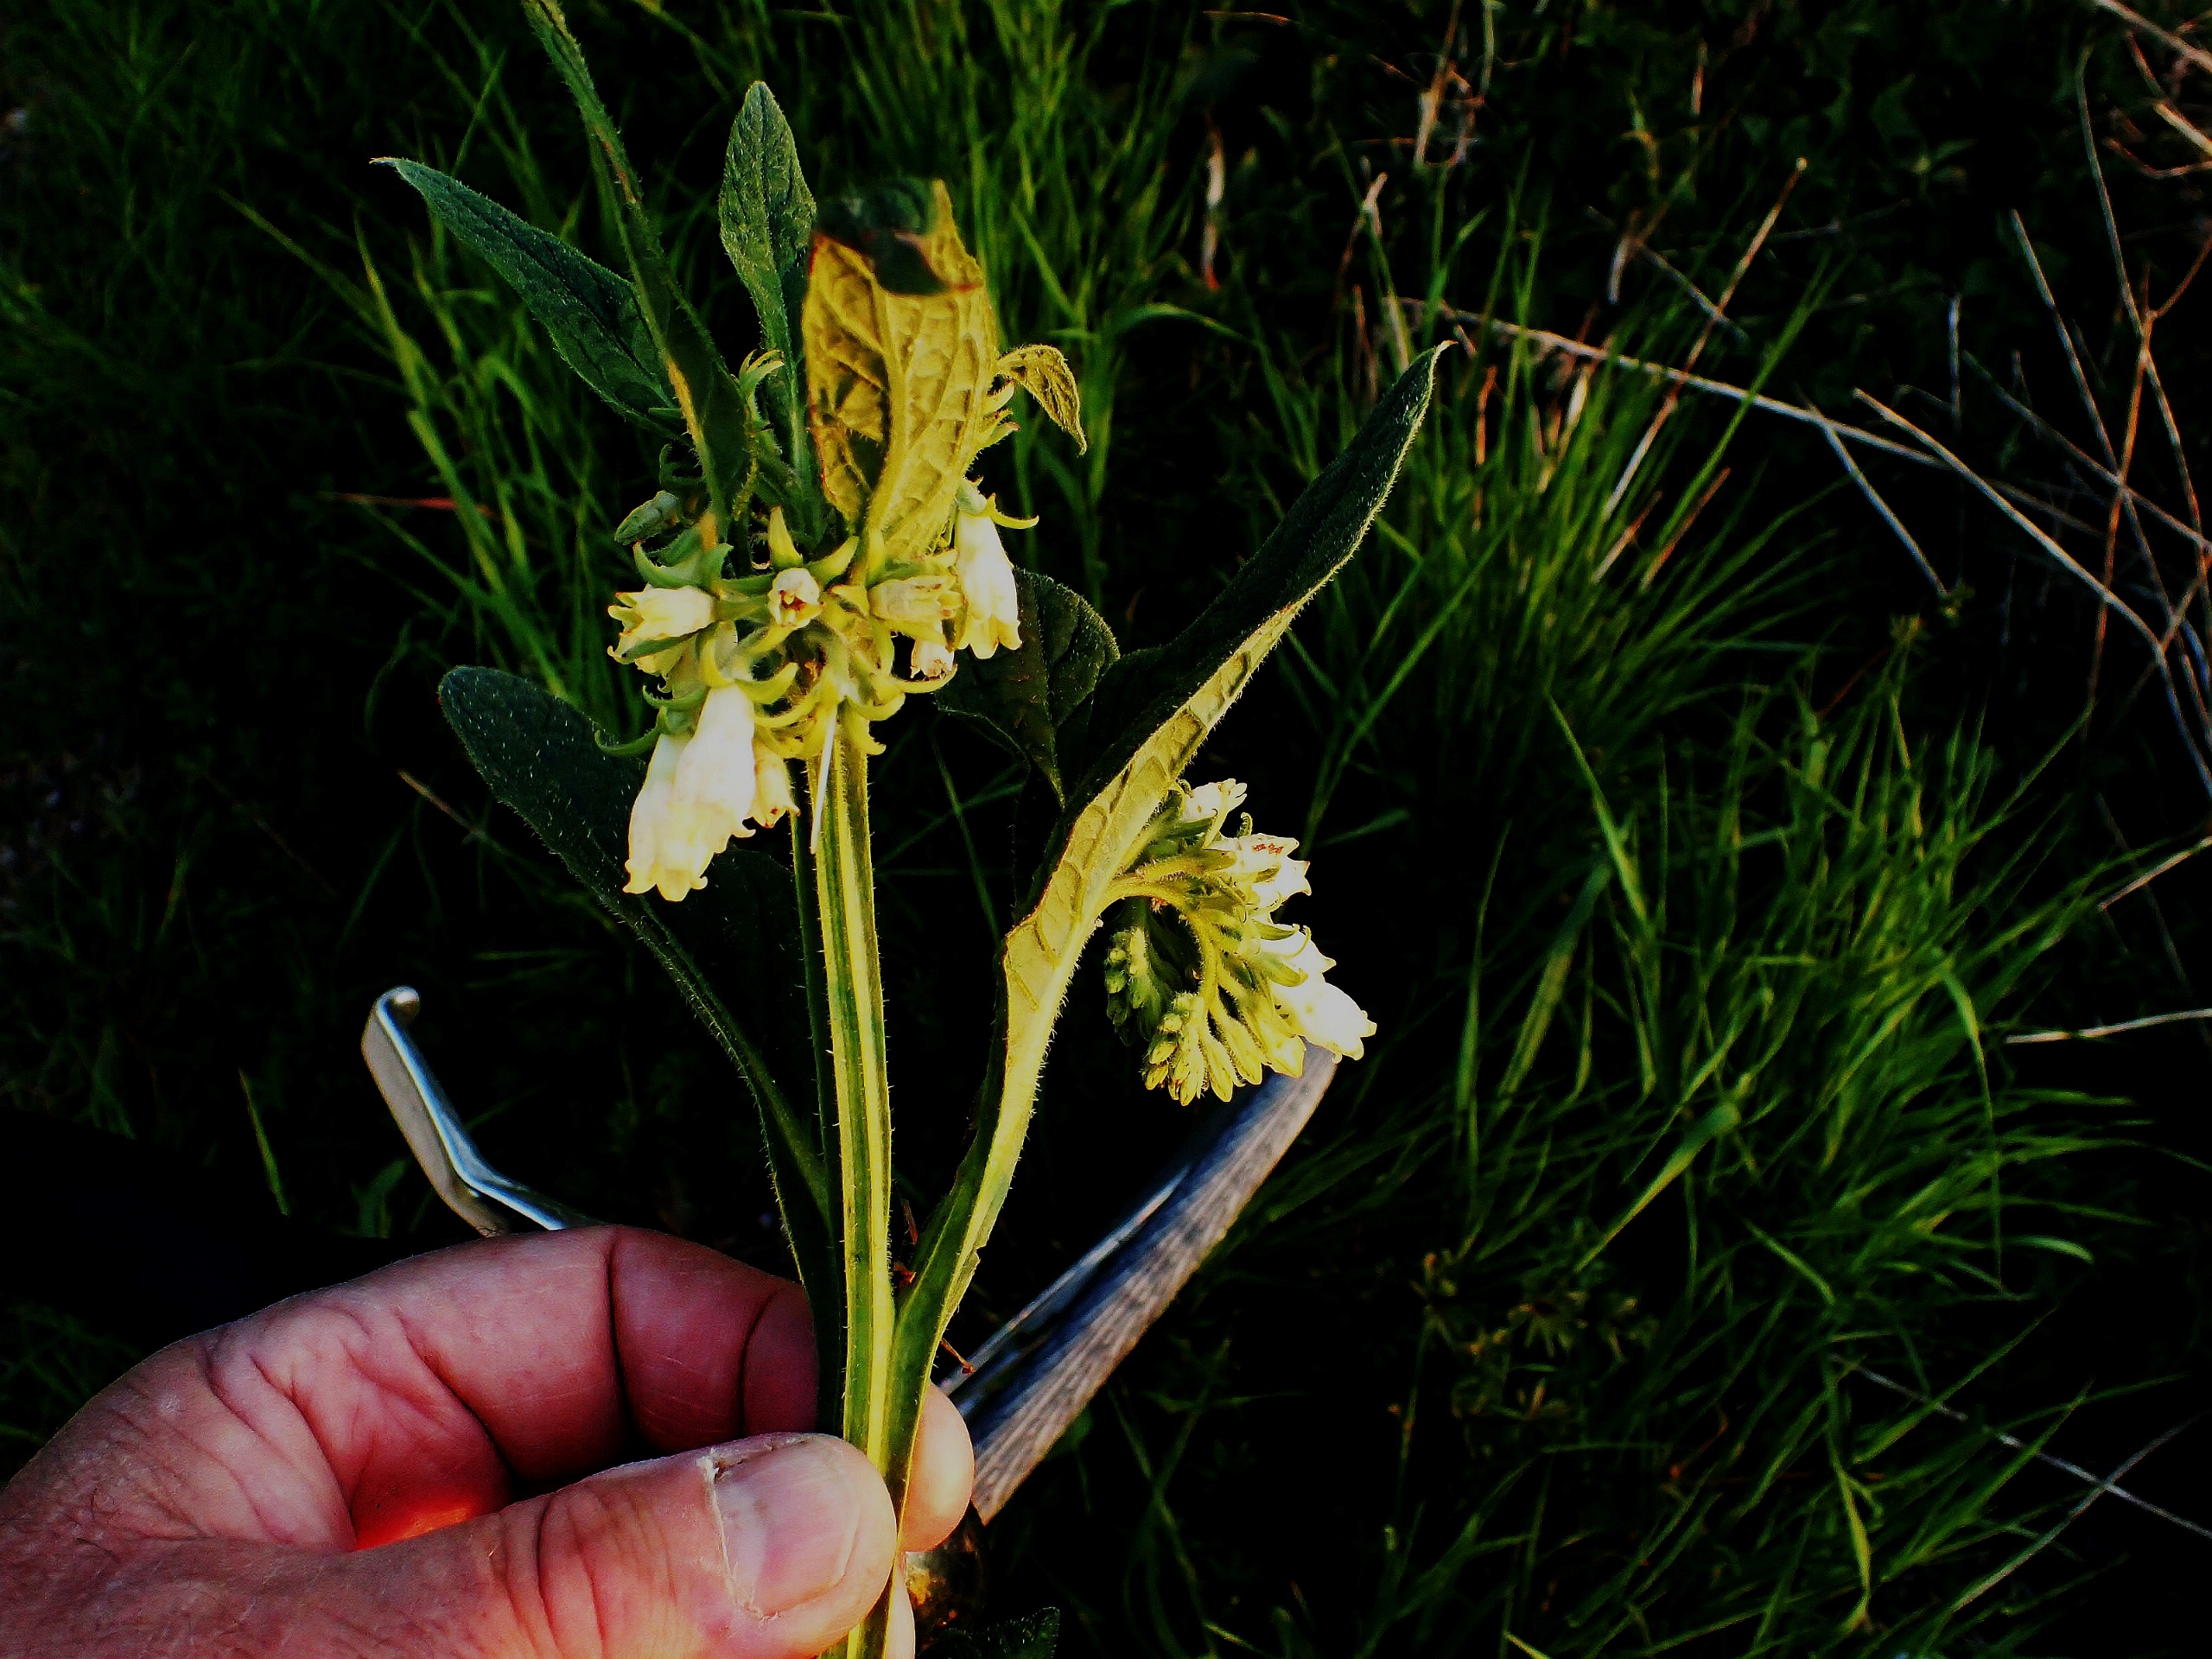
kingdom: Plantae
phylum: Tracheophyta
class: Magnoliopsida
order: Boraginales
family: Boraginaceae
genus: Symphytum
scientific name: Symphytum officinale
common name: Læge-kulsukker
